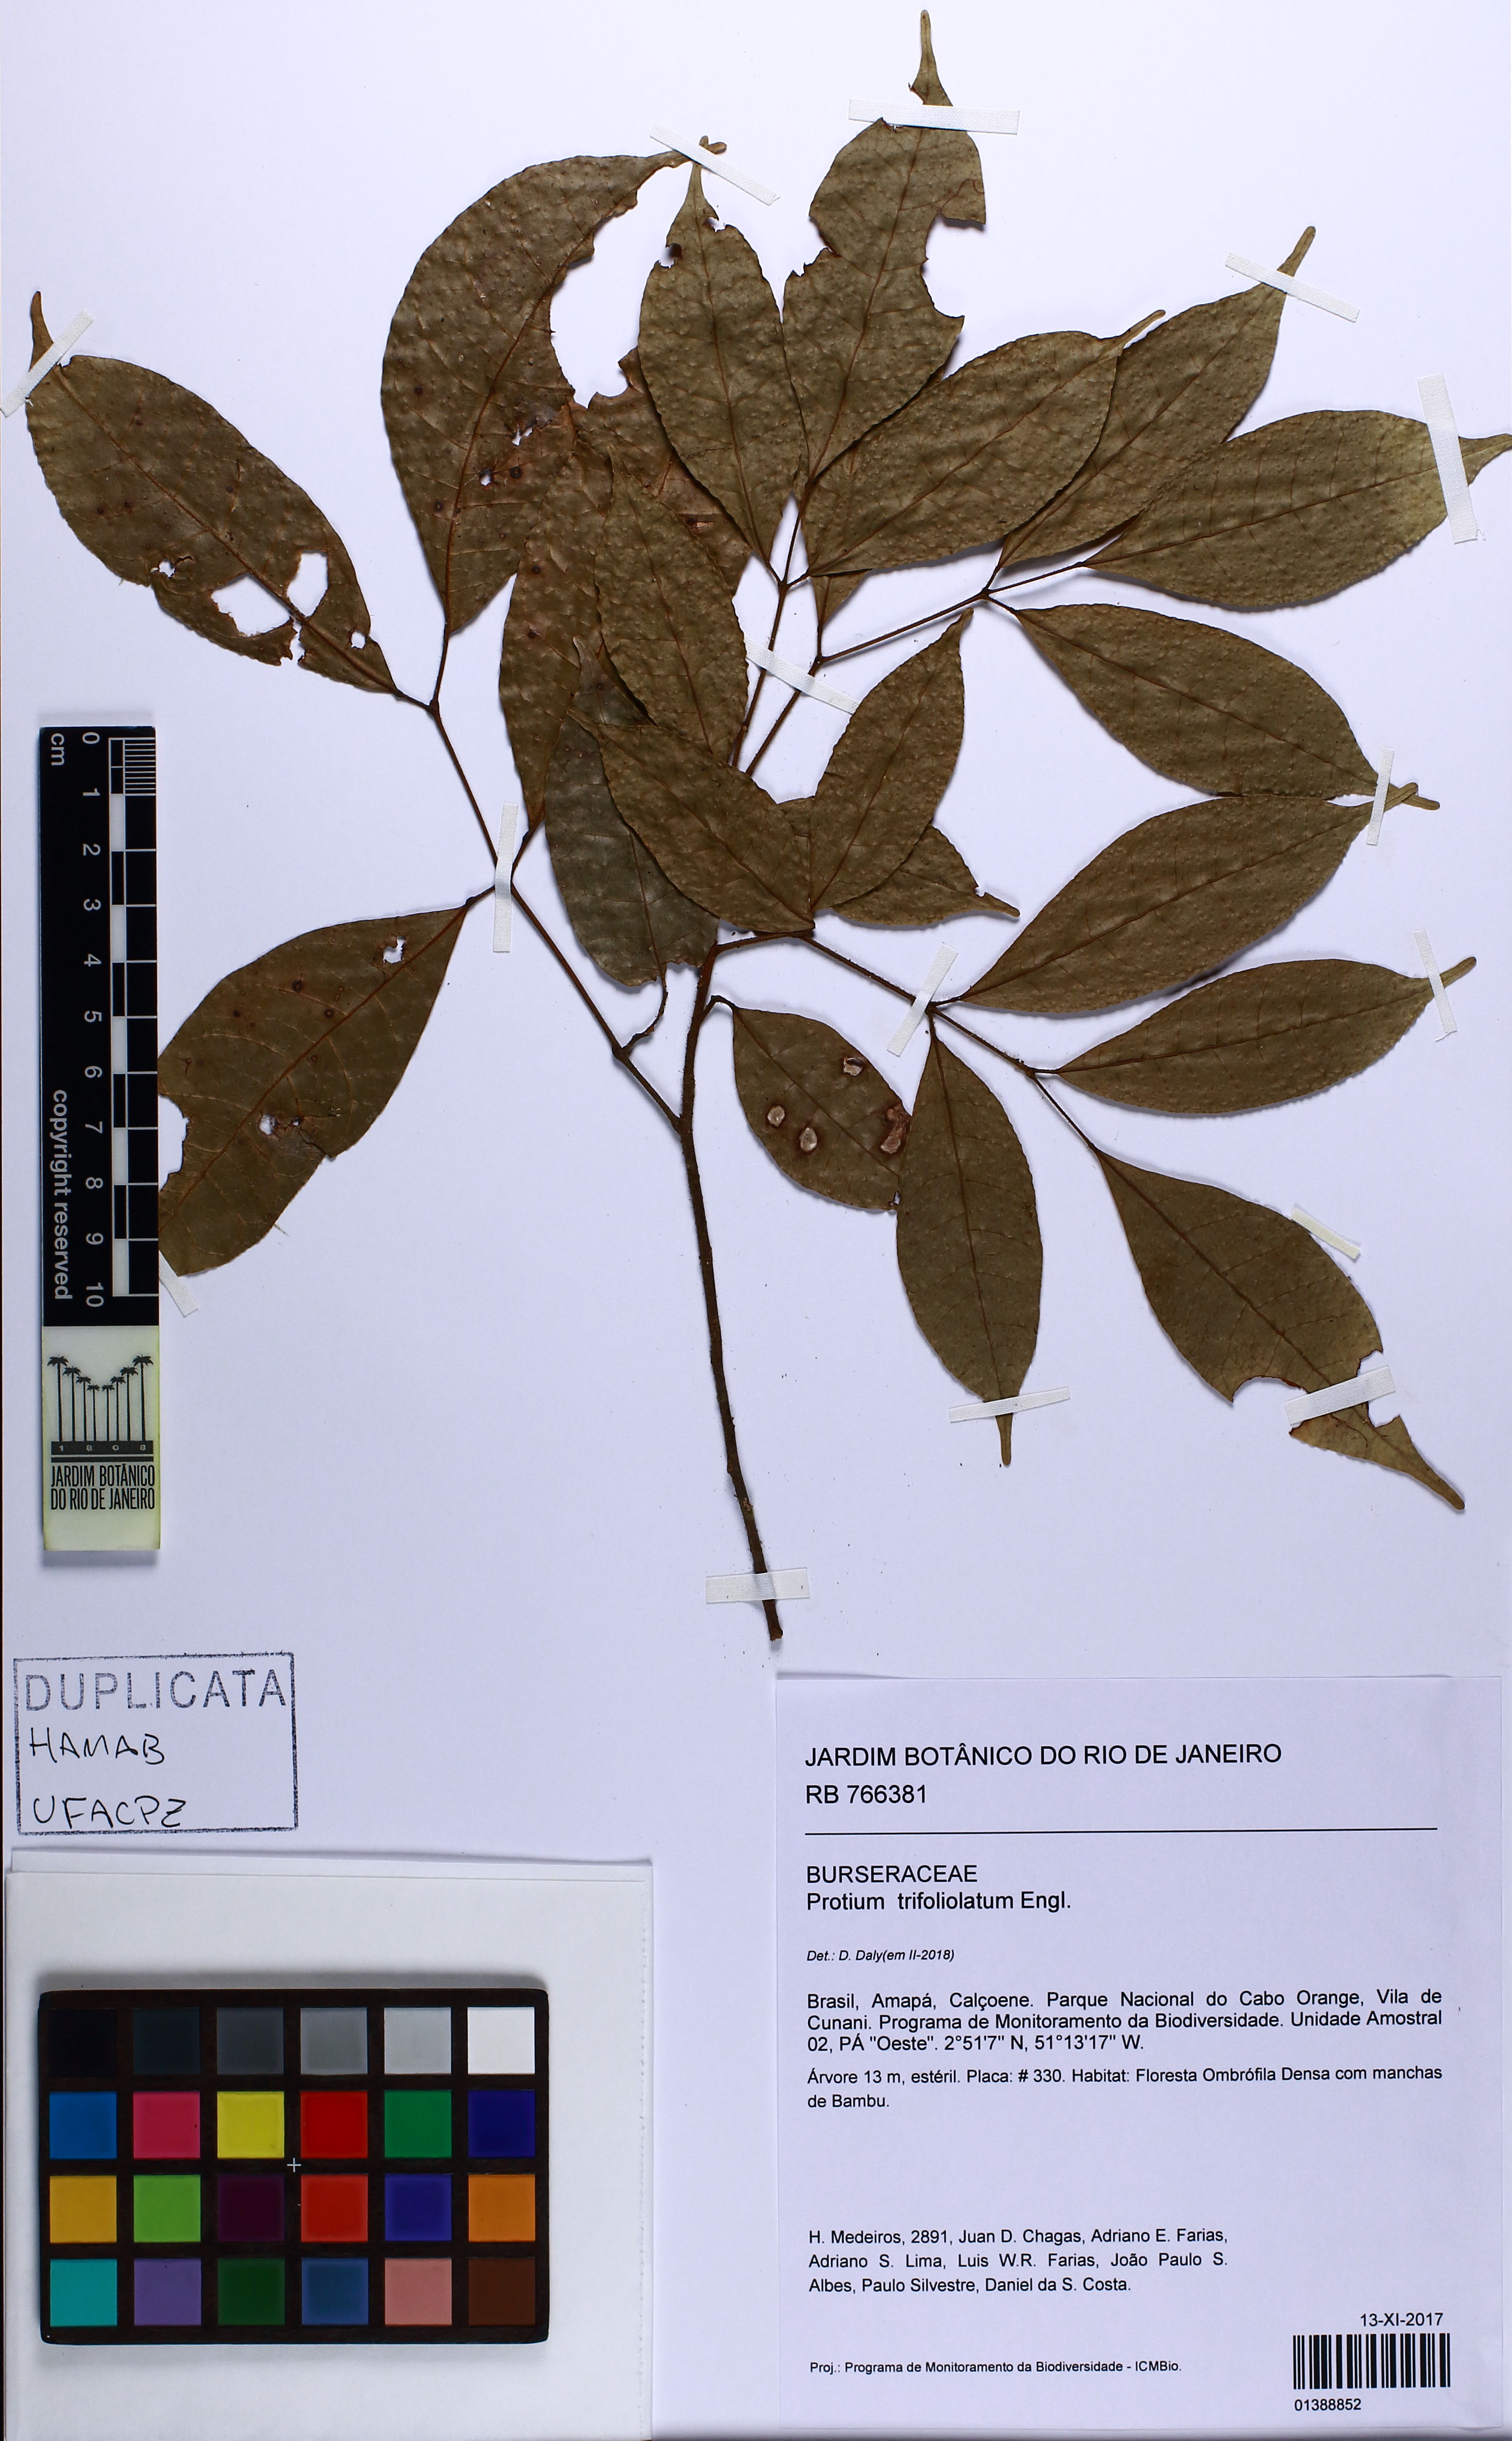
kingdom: Plantae
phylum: Tracheophyta
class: Magnoliopsida
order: Sapindales
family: Burseraceae
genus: Protium
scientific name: Protium trifoliolatum
